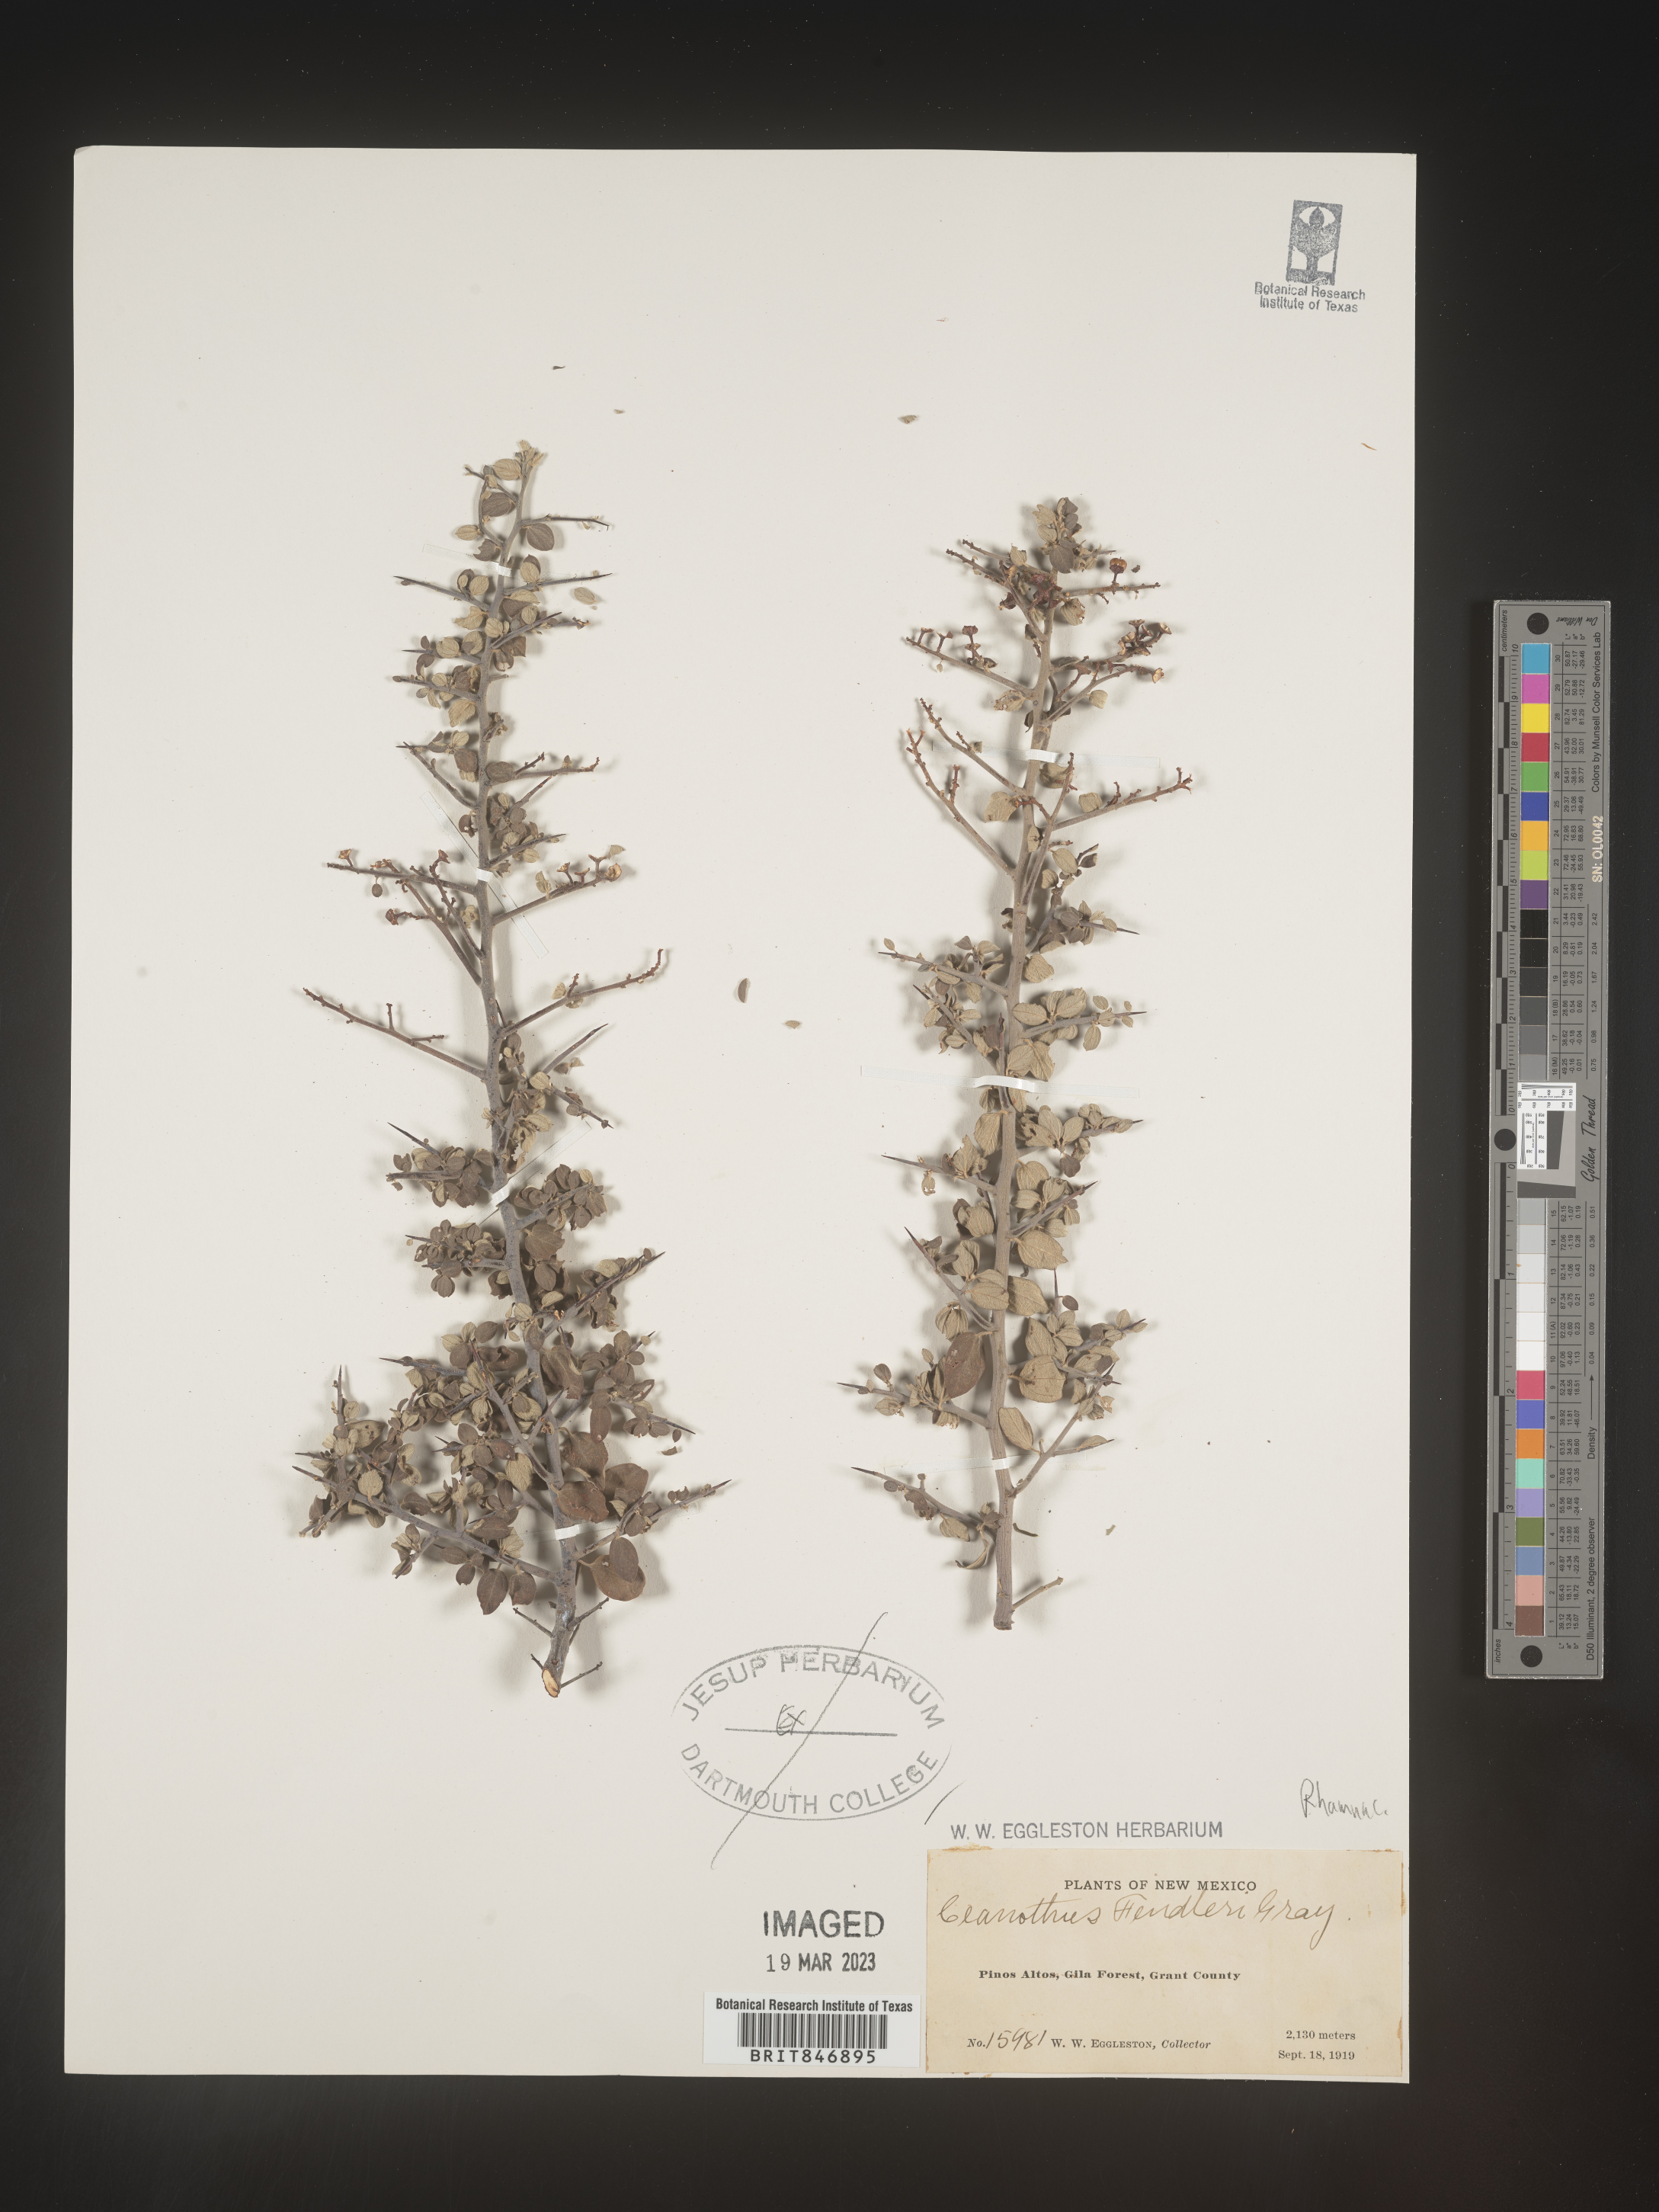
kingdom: Plantae
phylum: Tracheophyta
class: Magnoliopsida
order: Rosales
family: Rhamnaceae
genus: Ceanothus
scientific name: Ceanothus fendleri
